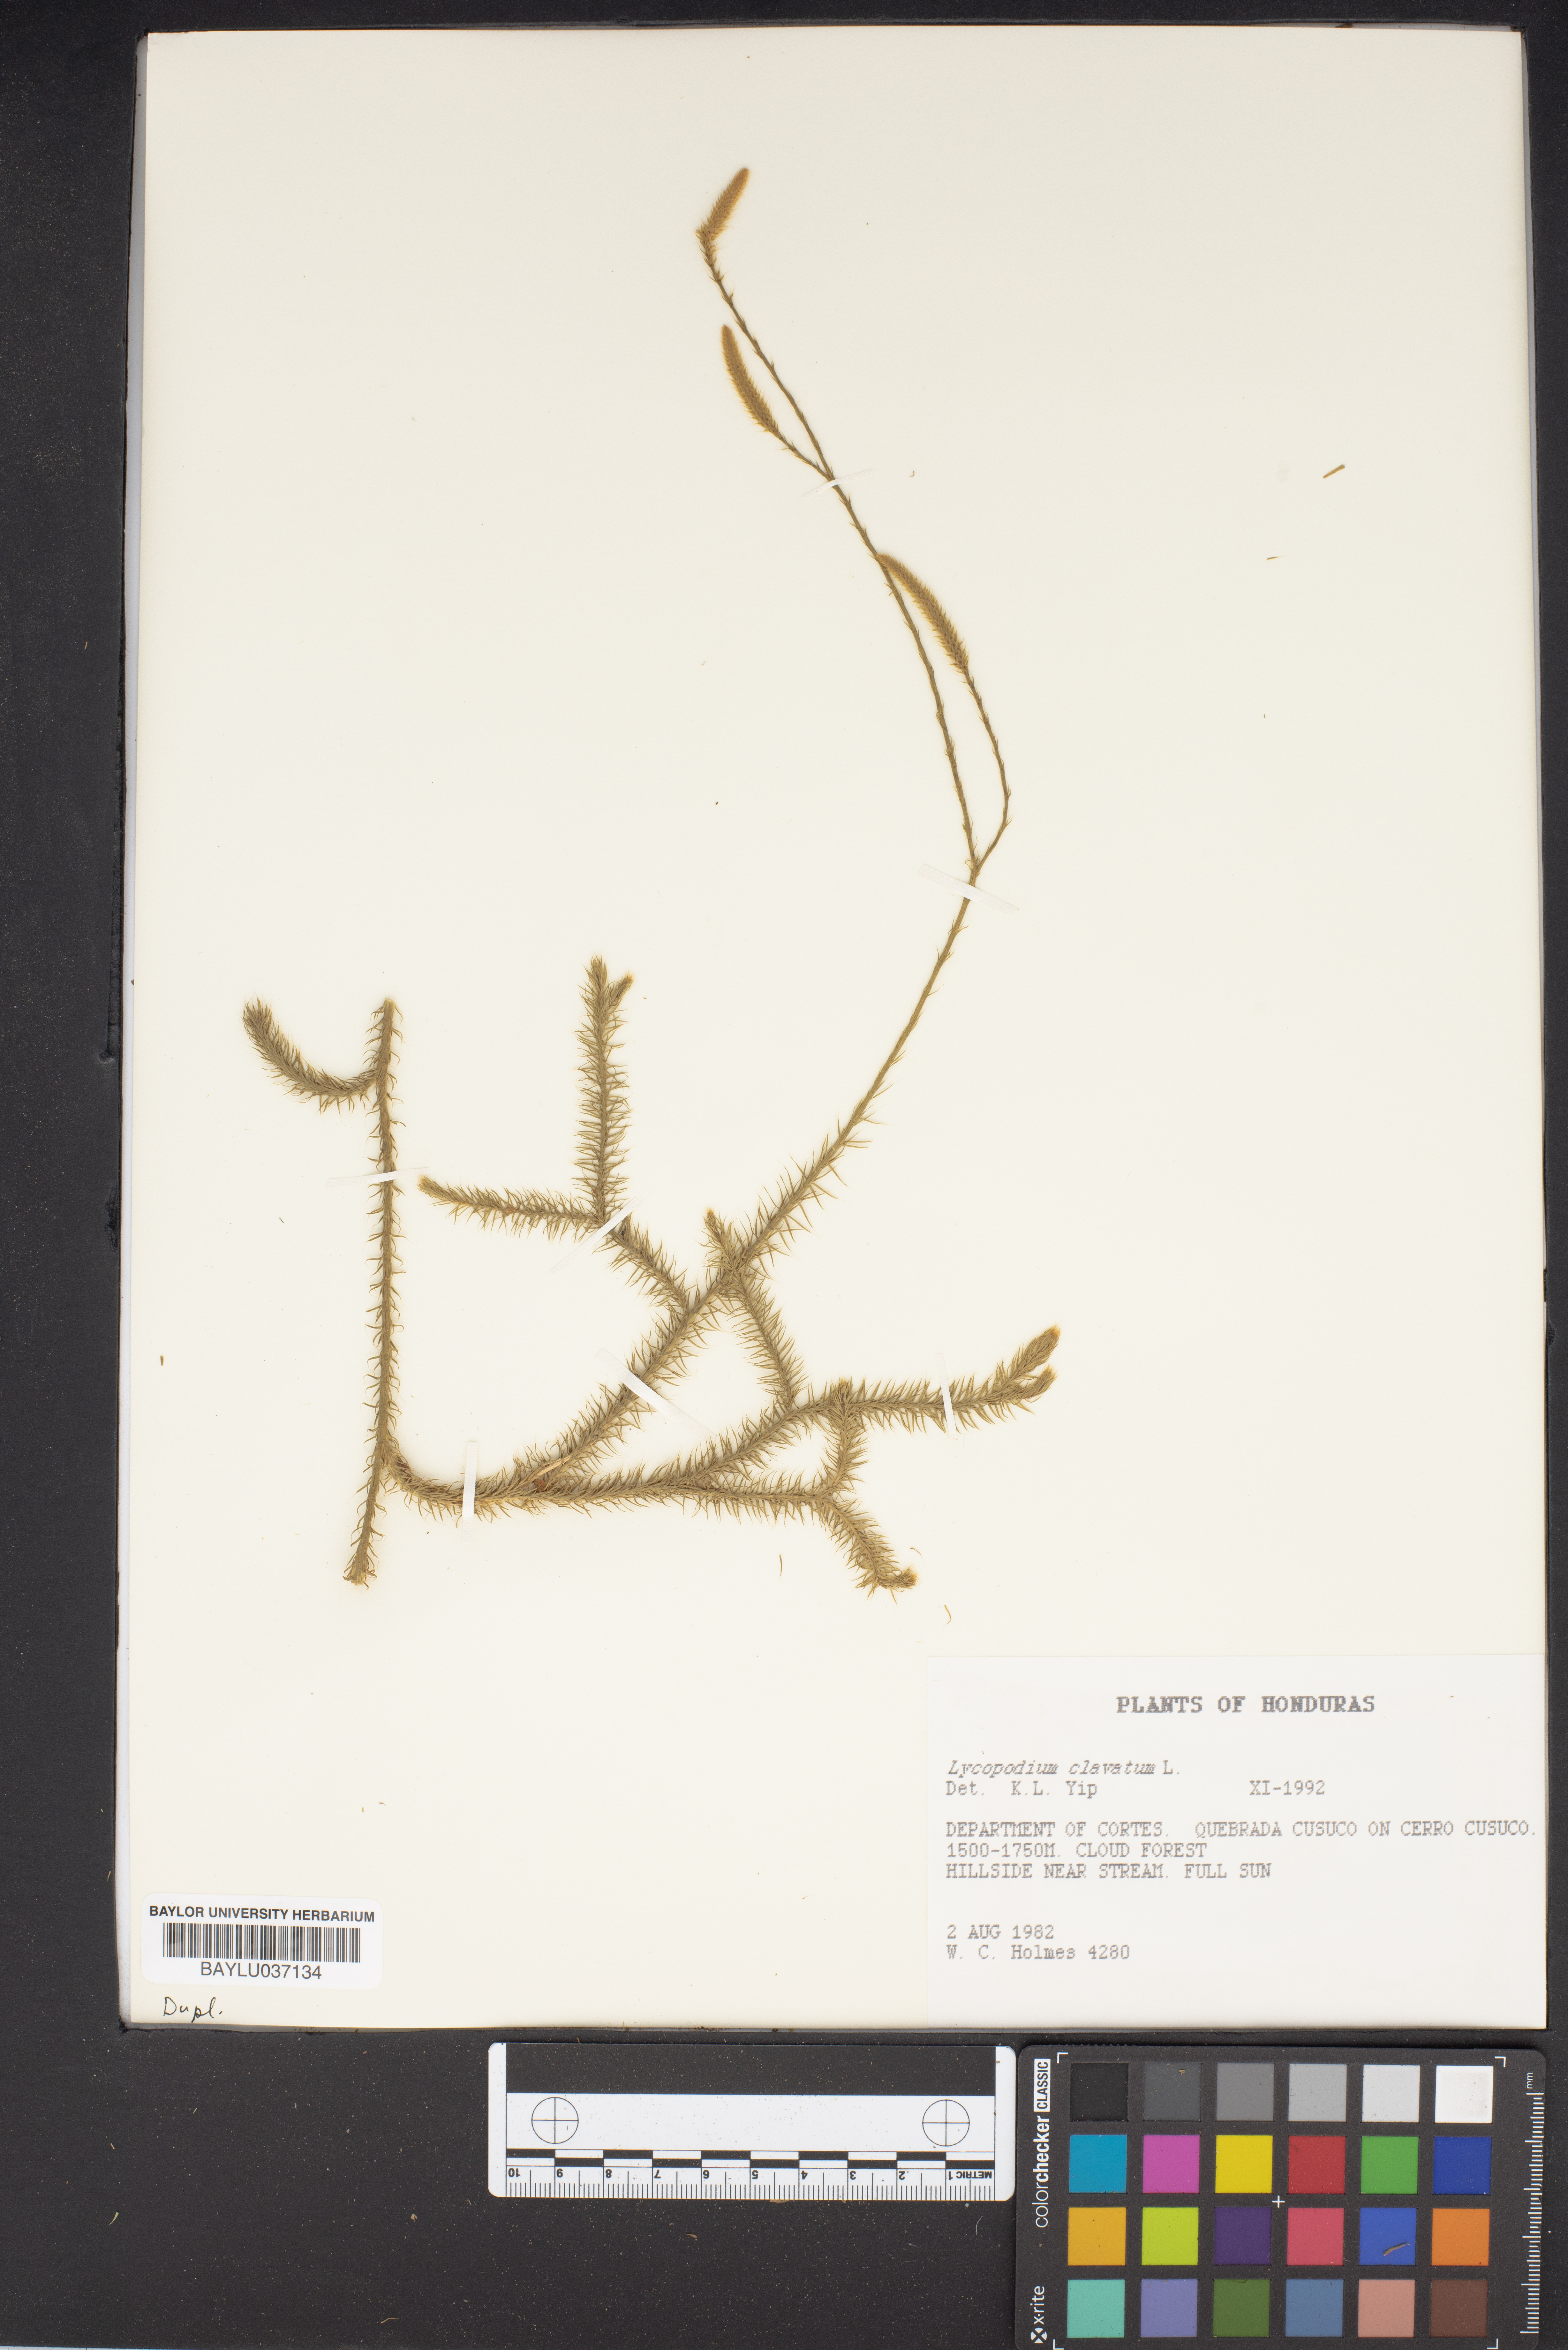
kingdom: Plantae
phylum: Tracheophyta
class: Lycopodiopsida
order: Lycopodiales
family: Lycopodiaceae
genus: Lycopodium
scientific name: Lycopodium clavatum
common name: Stag's-horn clubmoss
